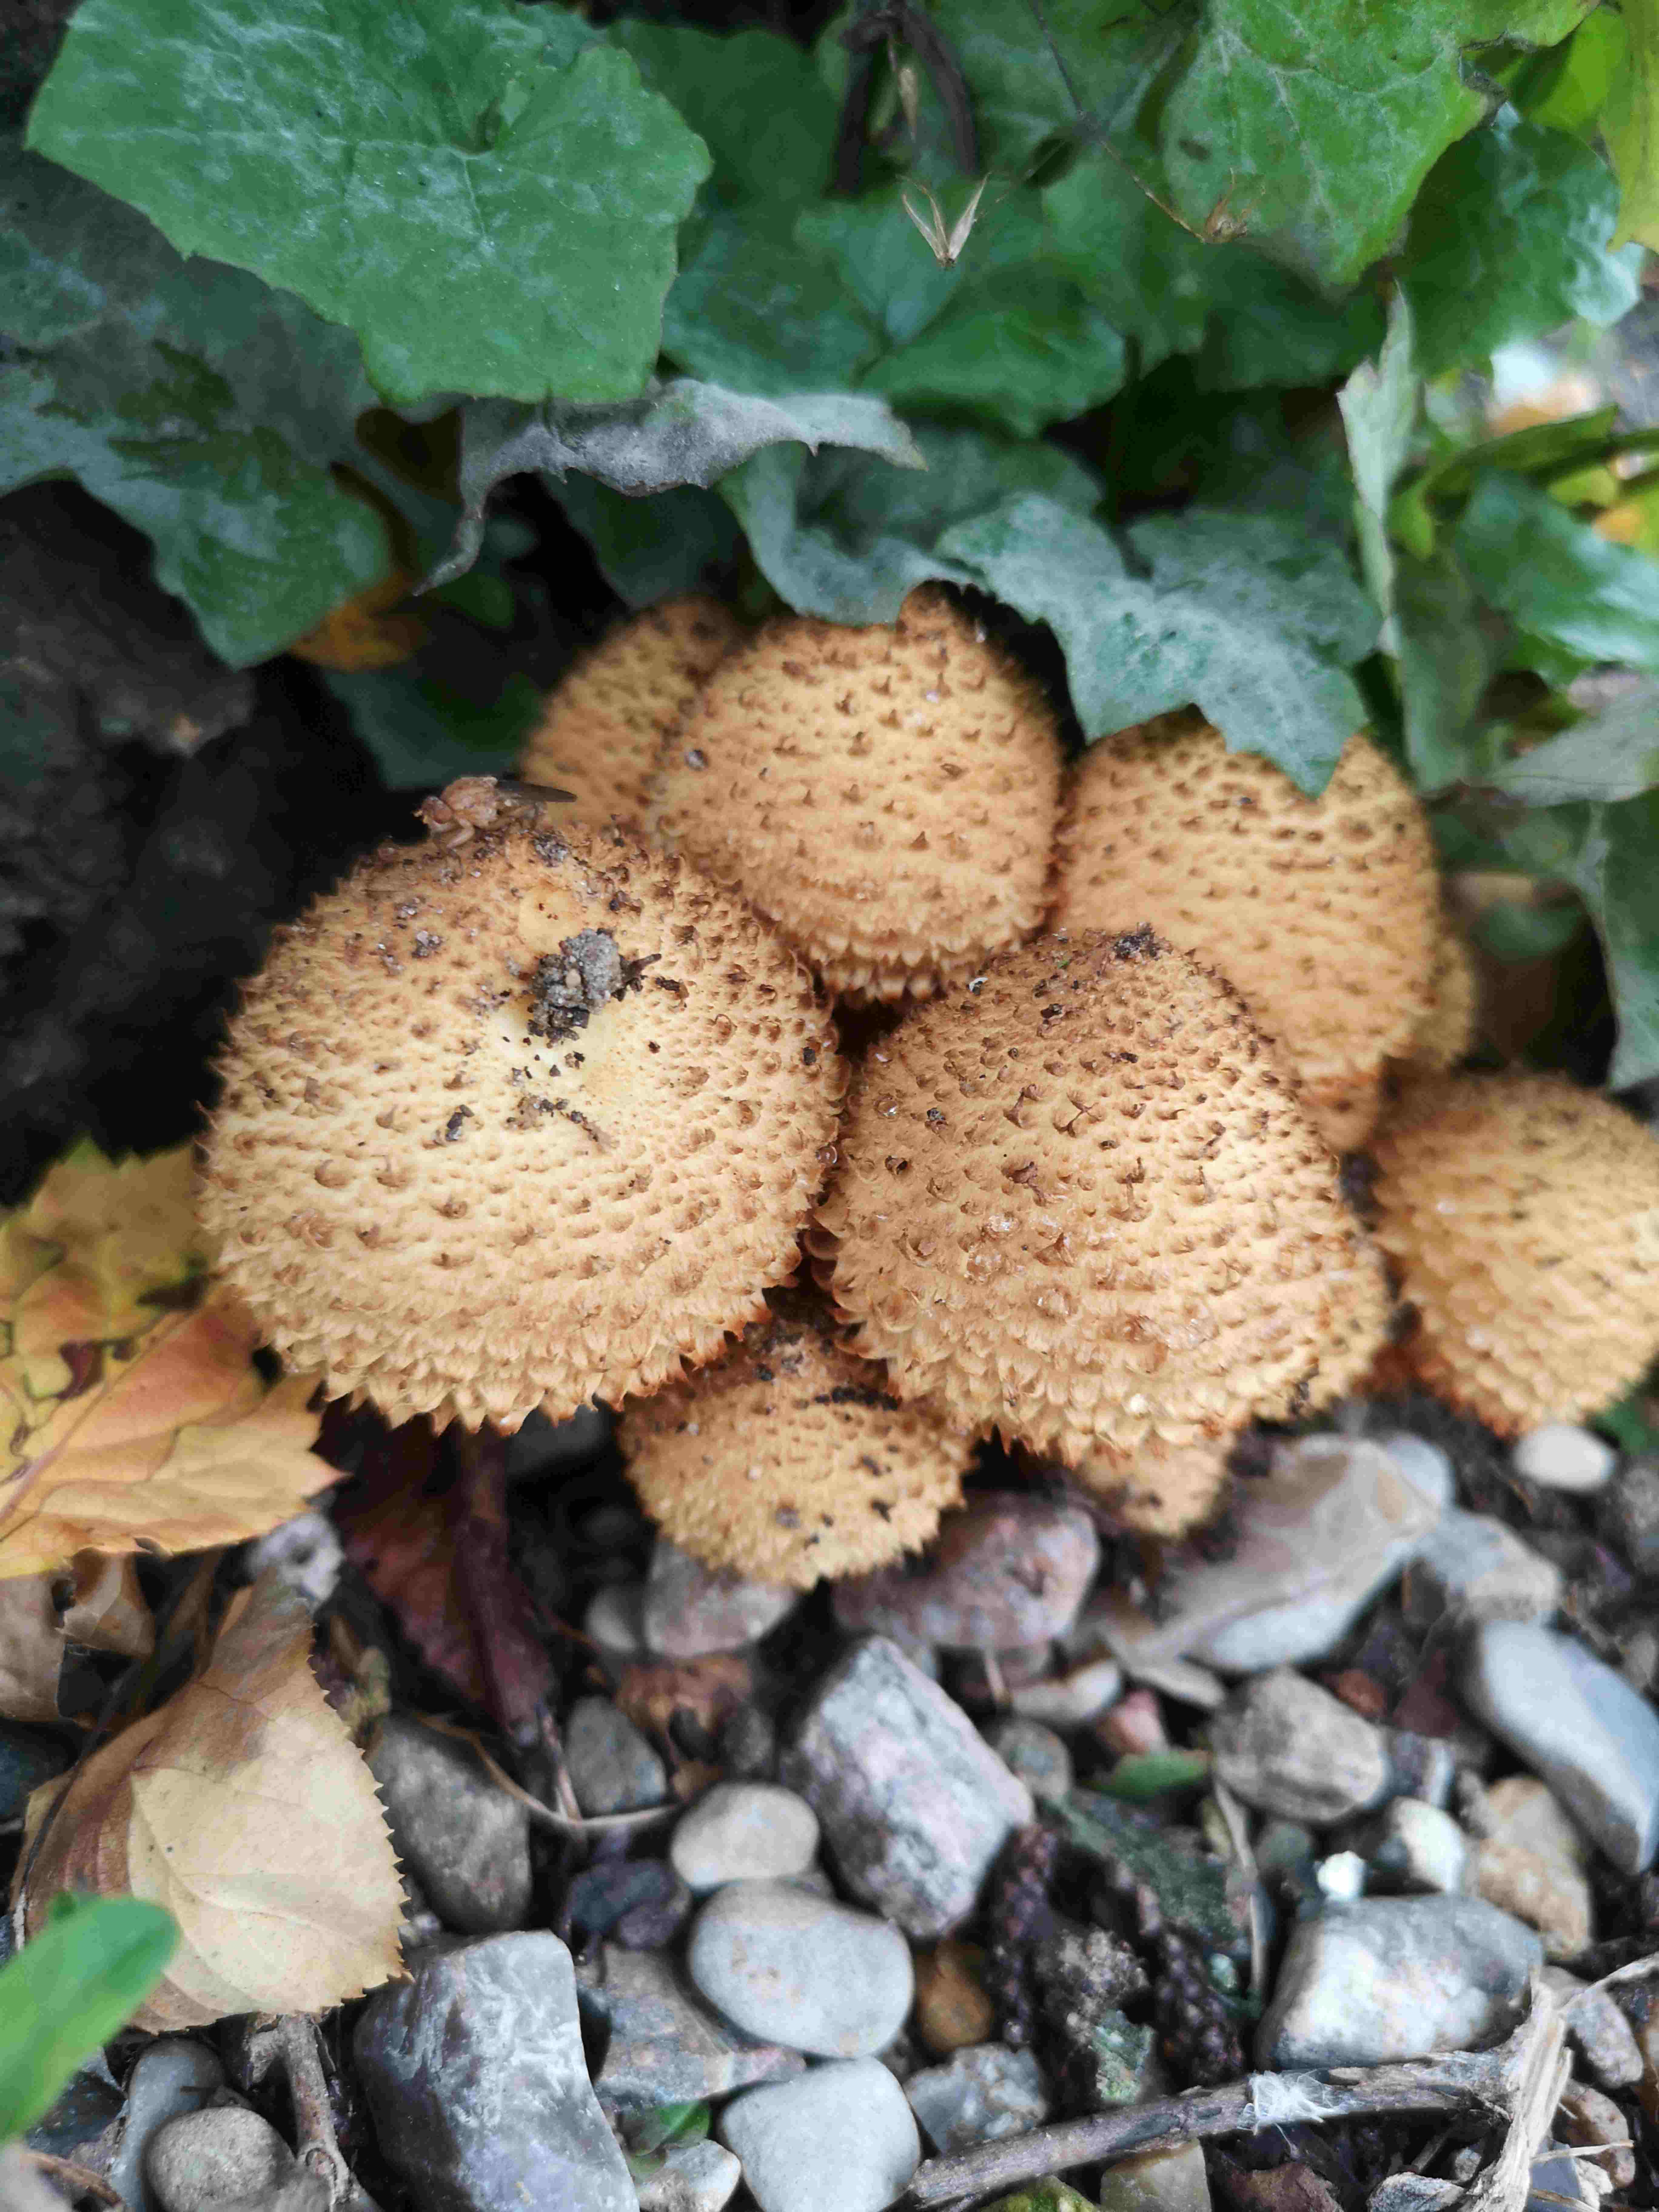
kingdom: Fungi
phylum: Basidiomycota
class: Agaricomycetes
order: Agaricales
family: Strophariaceae
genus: Pholiota
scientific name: Pholiota squarrosa
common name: krumskællet skælhat
